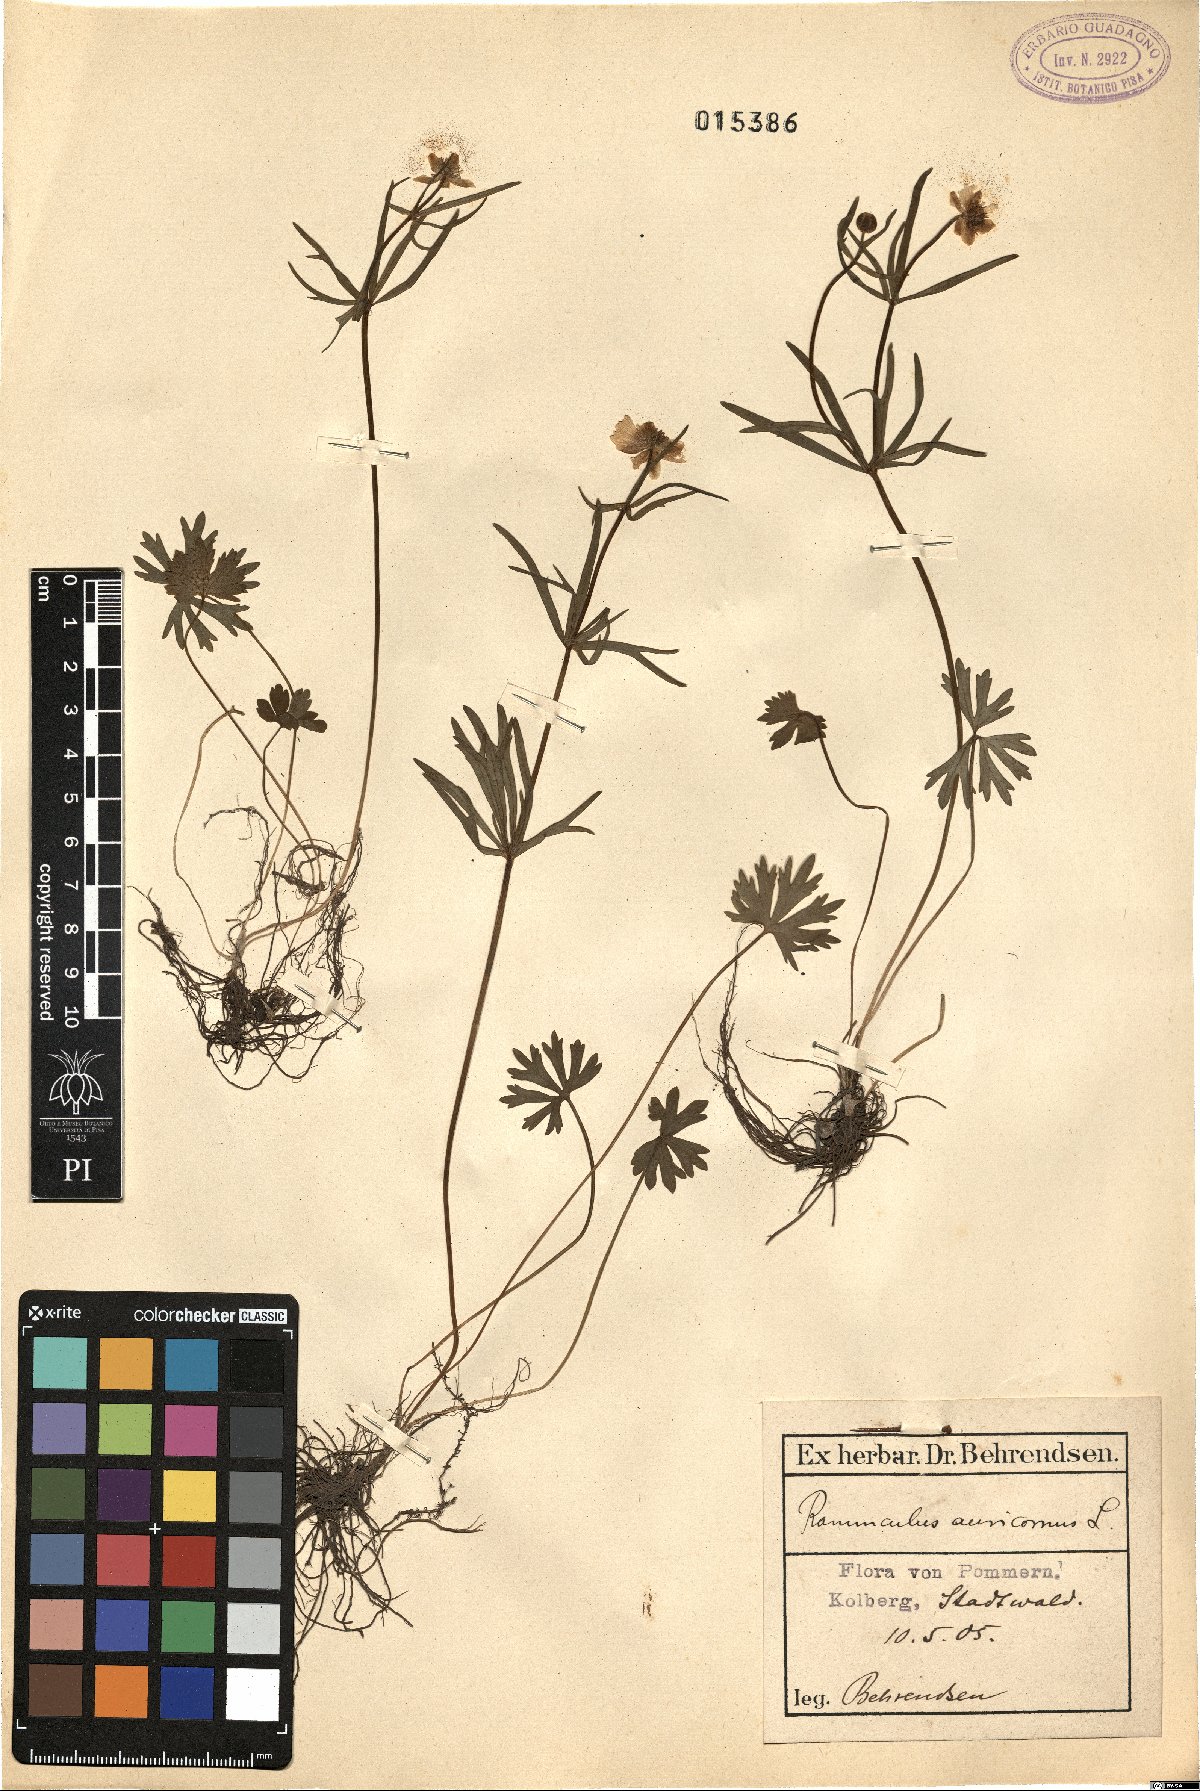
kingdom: Plantae
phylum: Tracheophyta
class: Magnoliopsida
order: Ranunculales
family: Ranunculaceae
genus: Ranunculus
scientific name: Ranunculus auricomus
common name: Goldilocks buttercup
